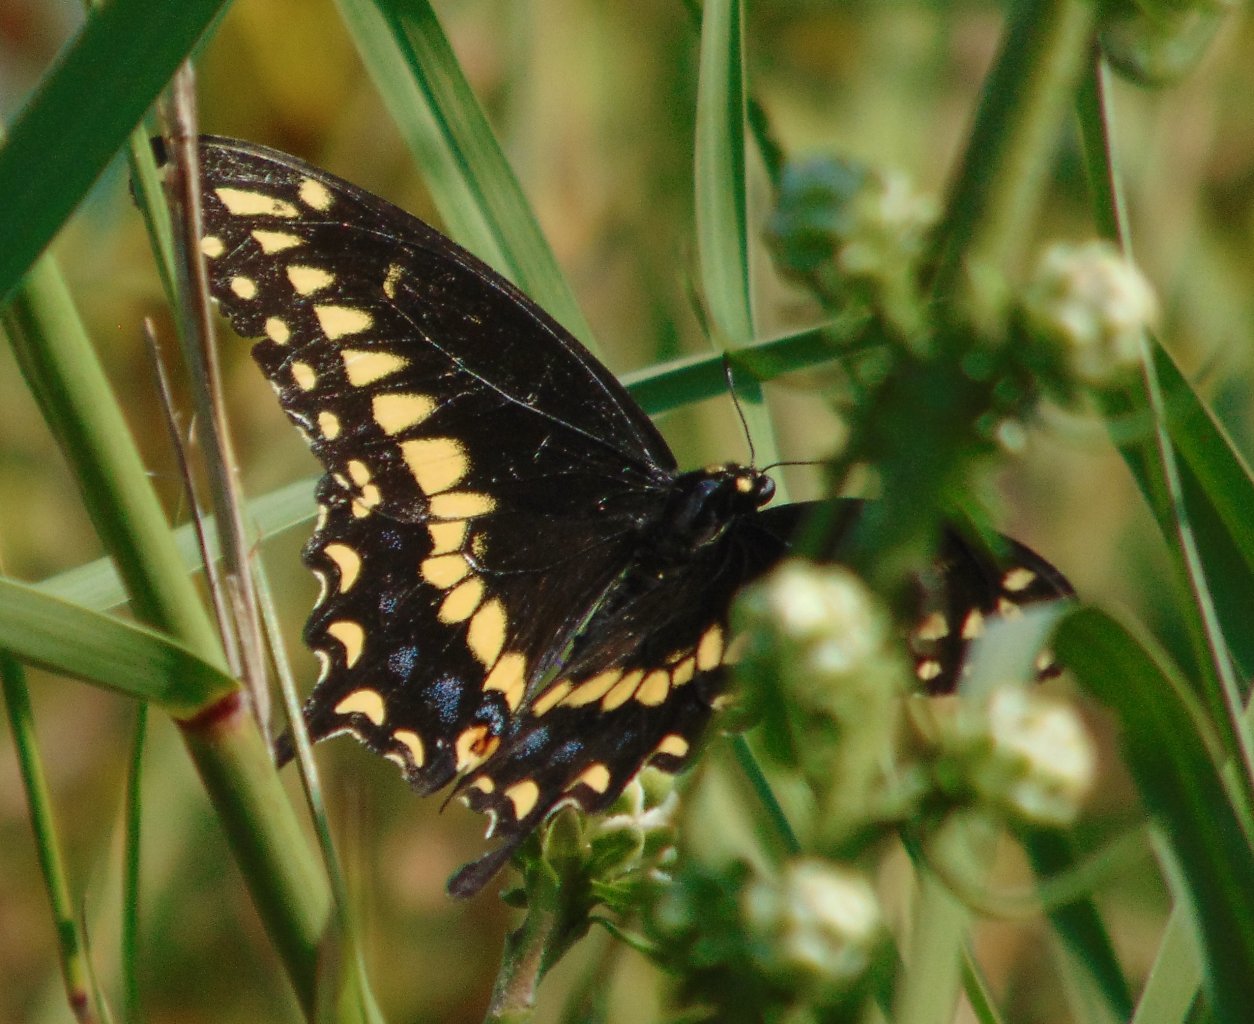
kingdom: Animalia
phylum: Arthropoda
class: Insecta
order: Lepidoptera
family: Papilionidae
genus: Papilio
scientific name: Papilio polyxenes
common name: Black Swallowtail
